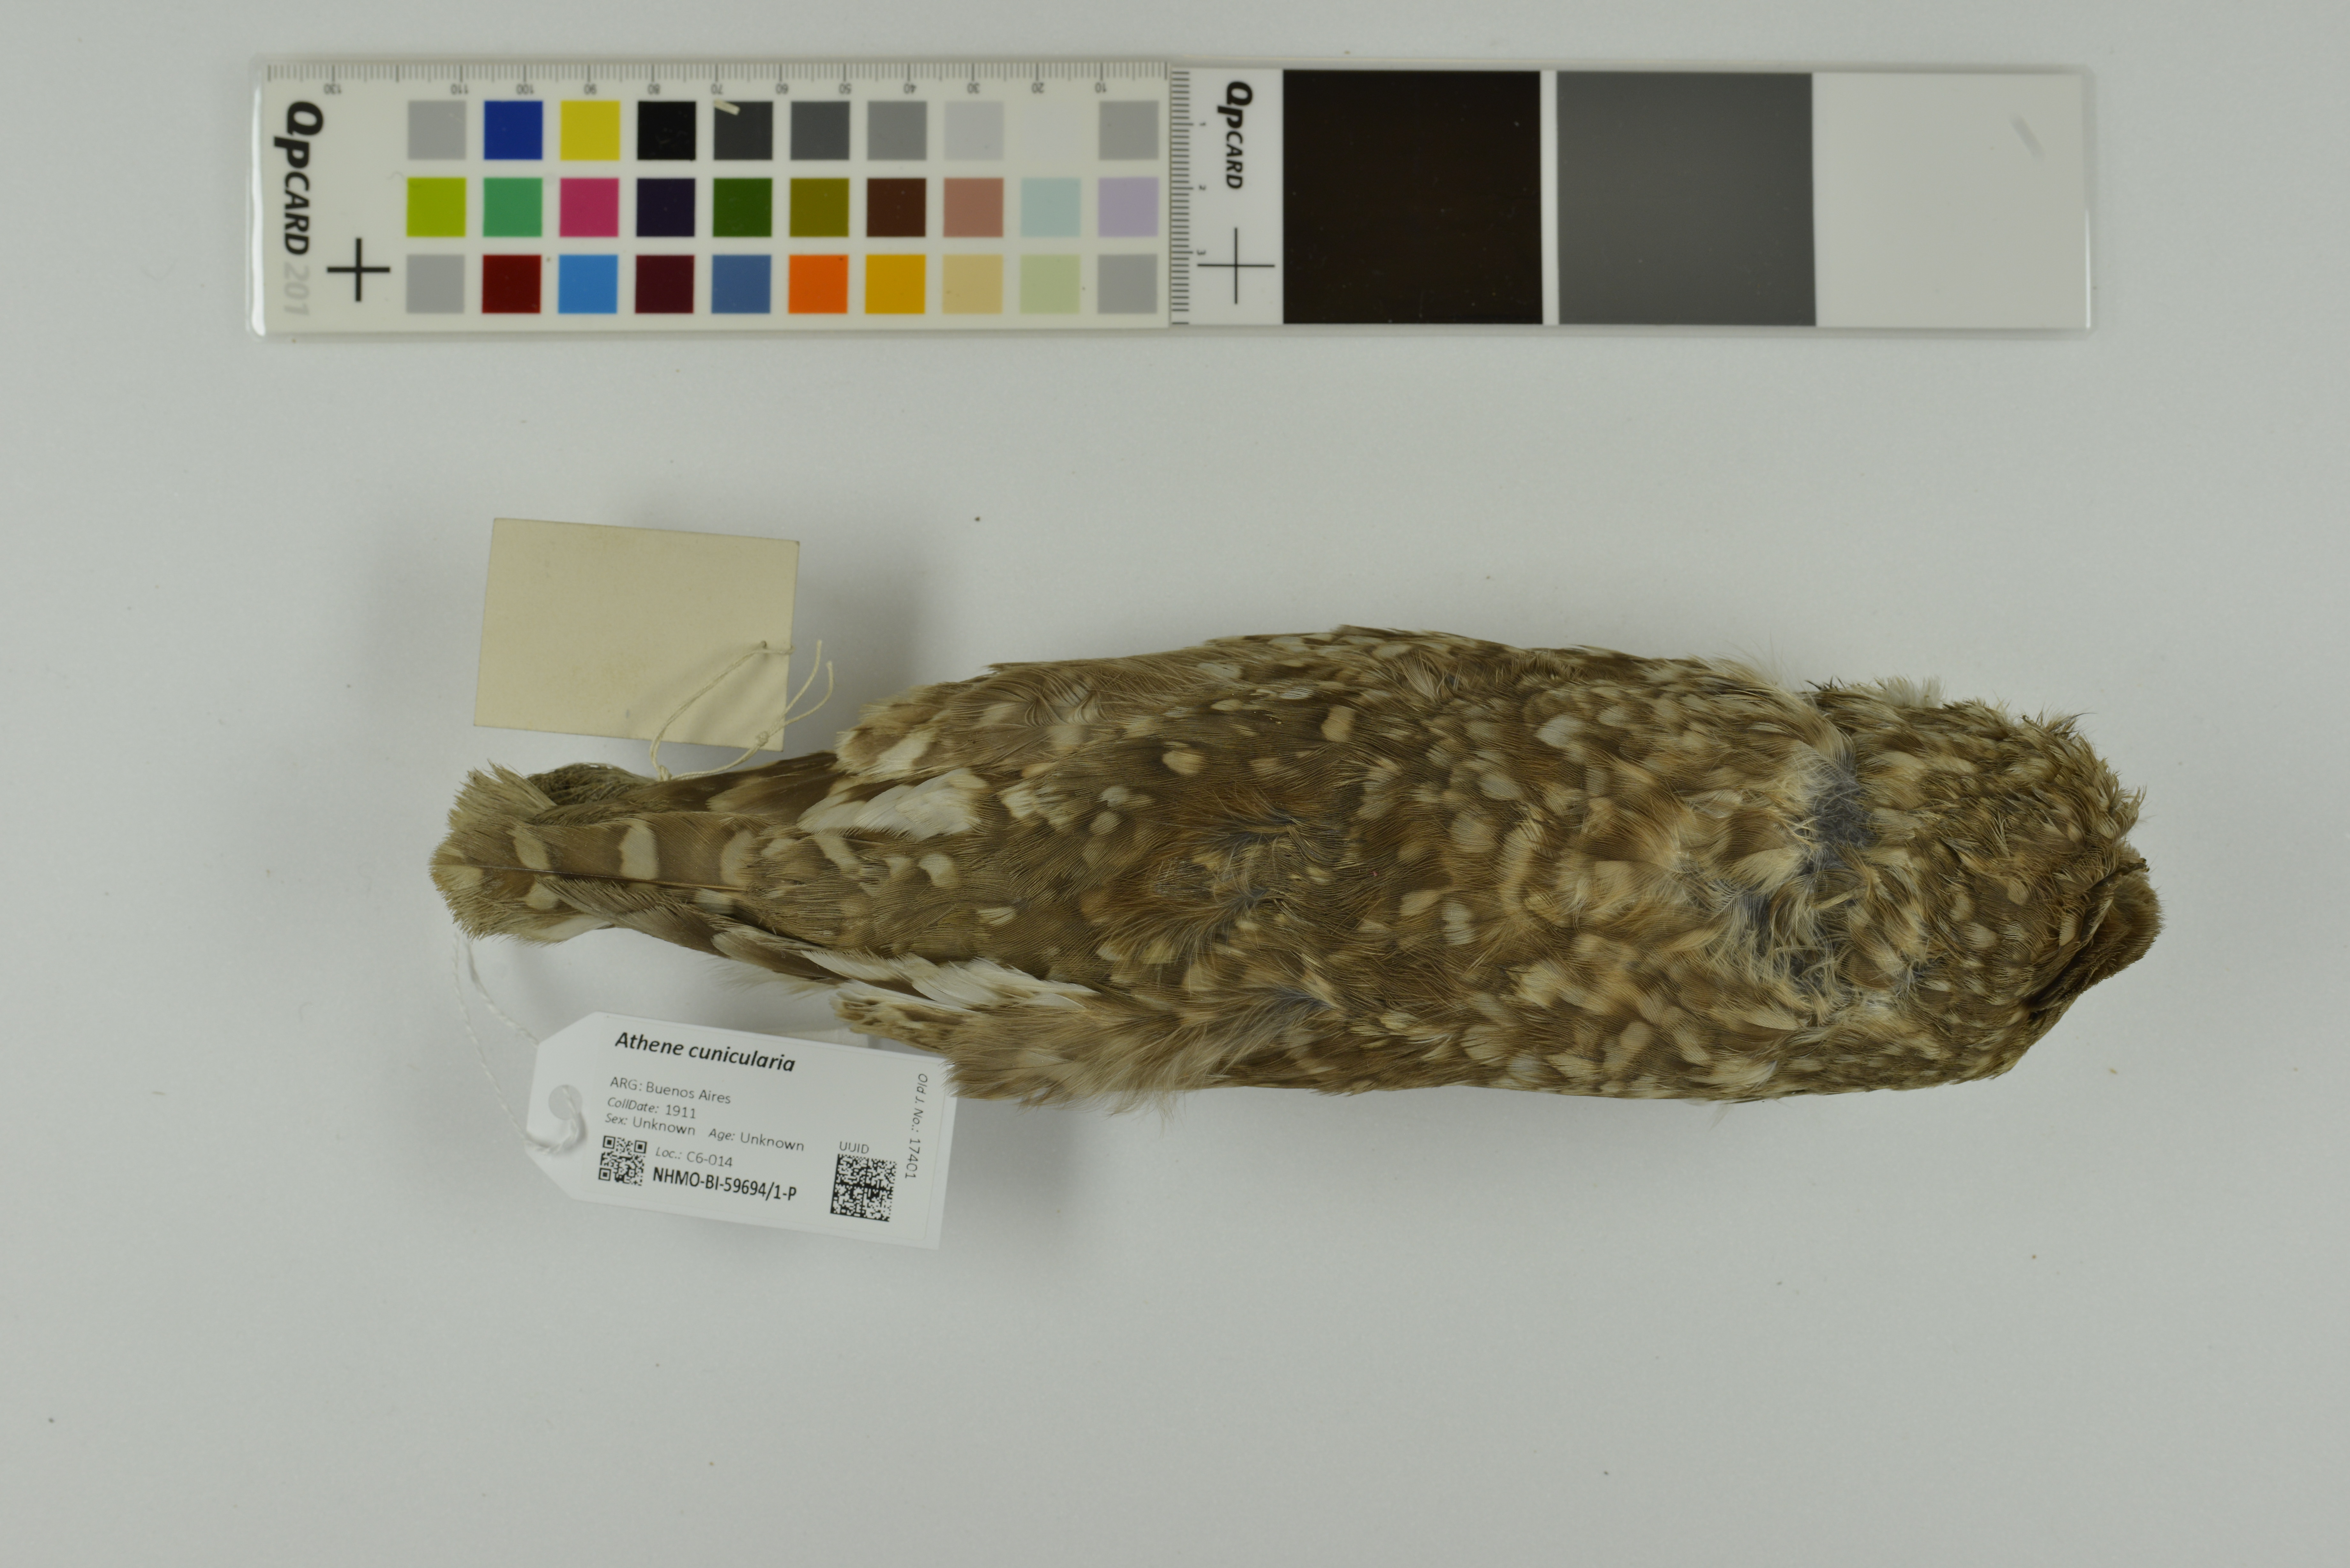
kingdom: Animalia
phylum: Chordata
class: Aves
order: Strigiformes
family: Strigidae
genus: Athene
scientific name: Athene cunicularia
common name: Burrowing owl
